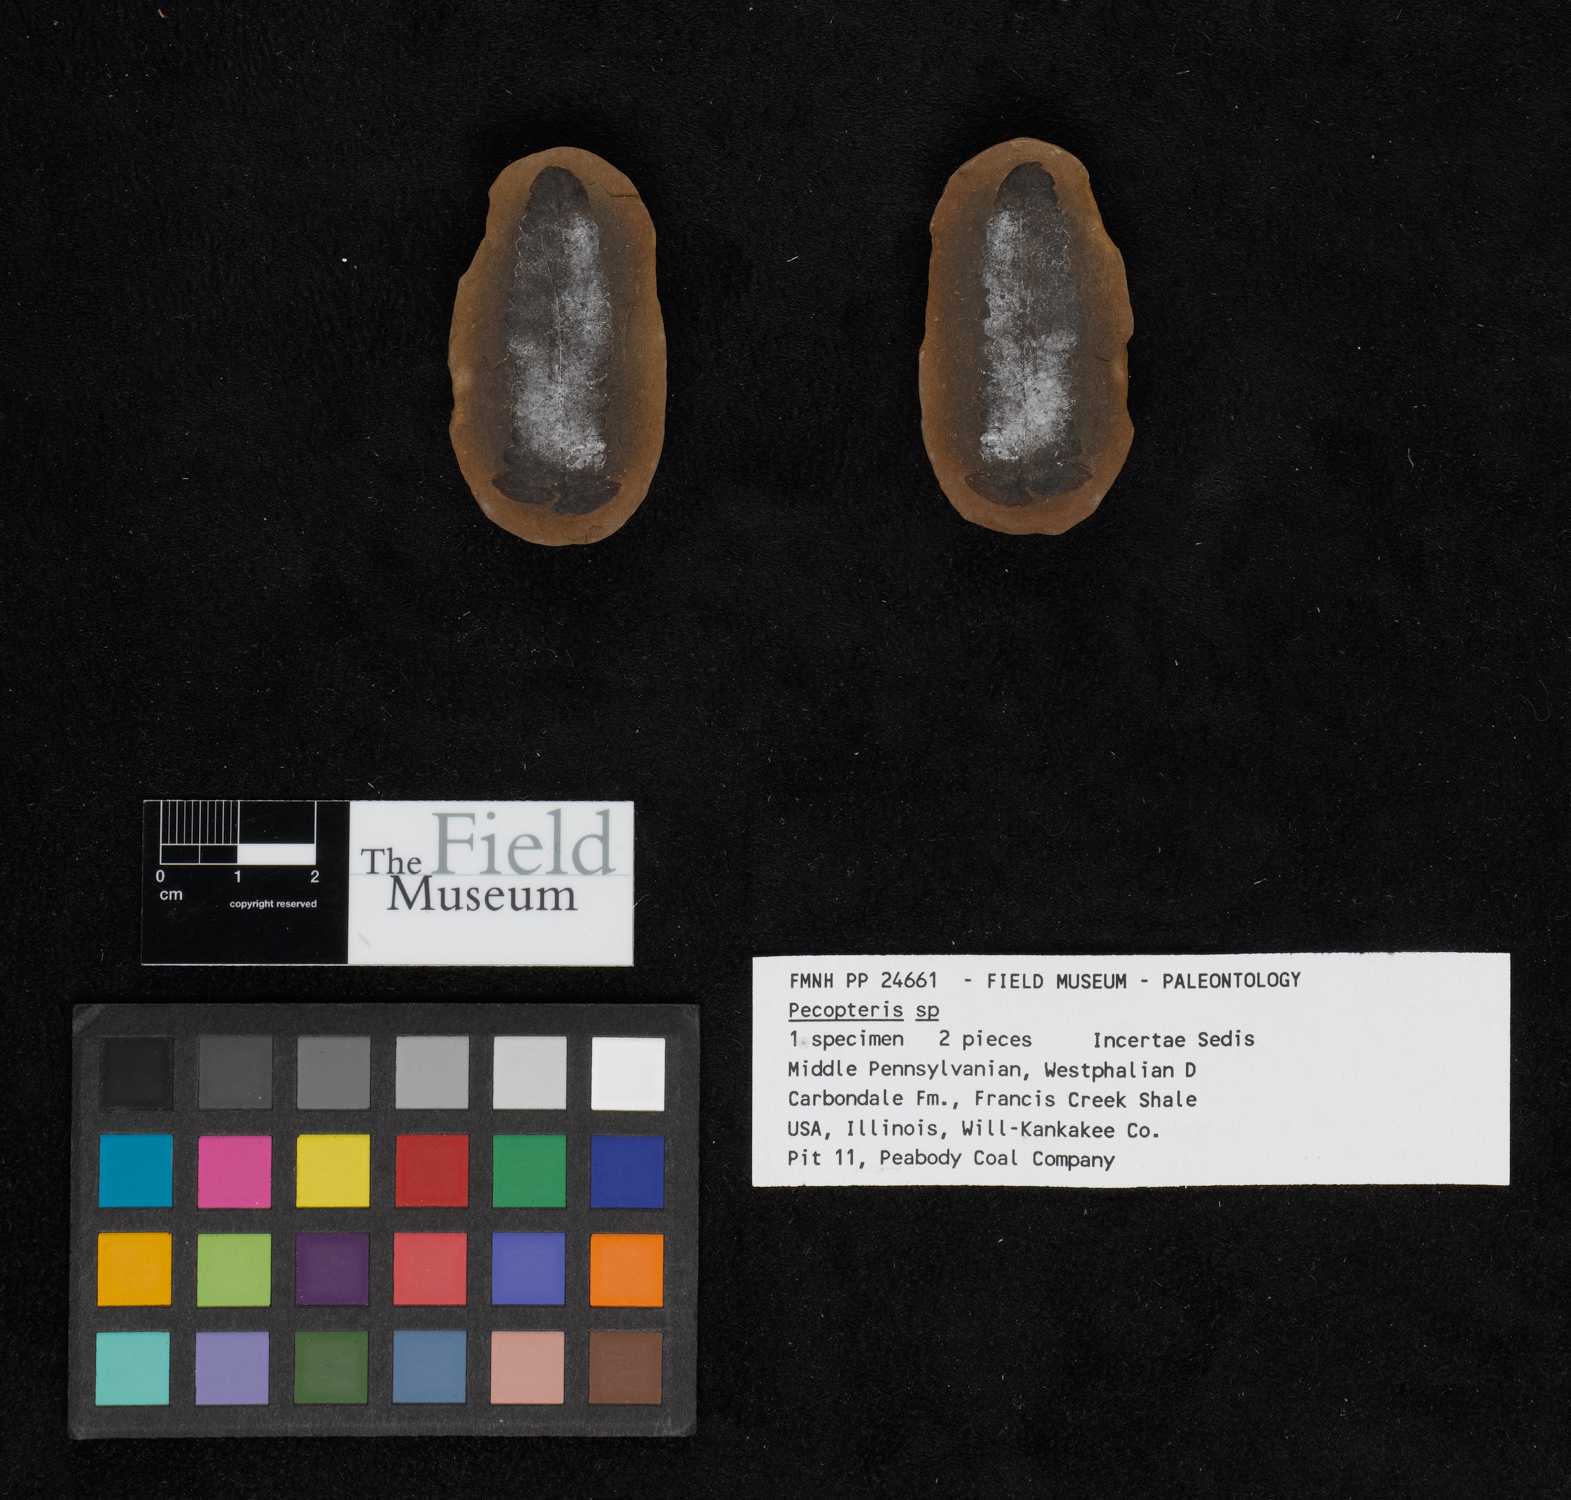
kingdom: Plantae
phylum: Tracheophyta
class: Polypodiopsida
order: Marattiales
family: Asterothecaceae
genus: Pecopteris
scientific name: Pecopteris
